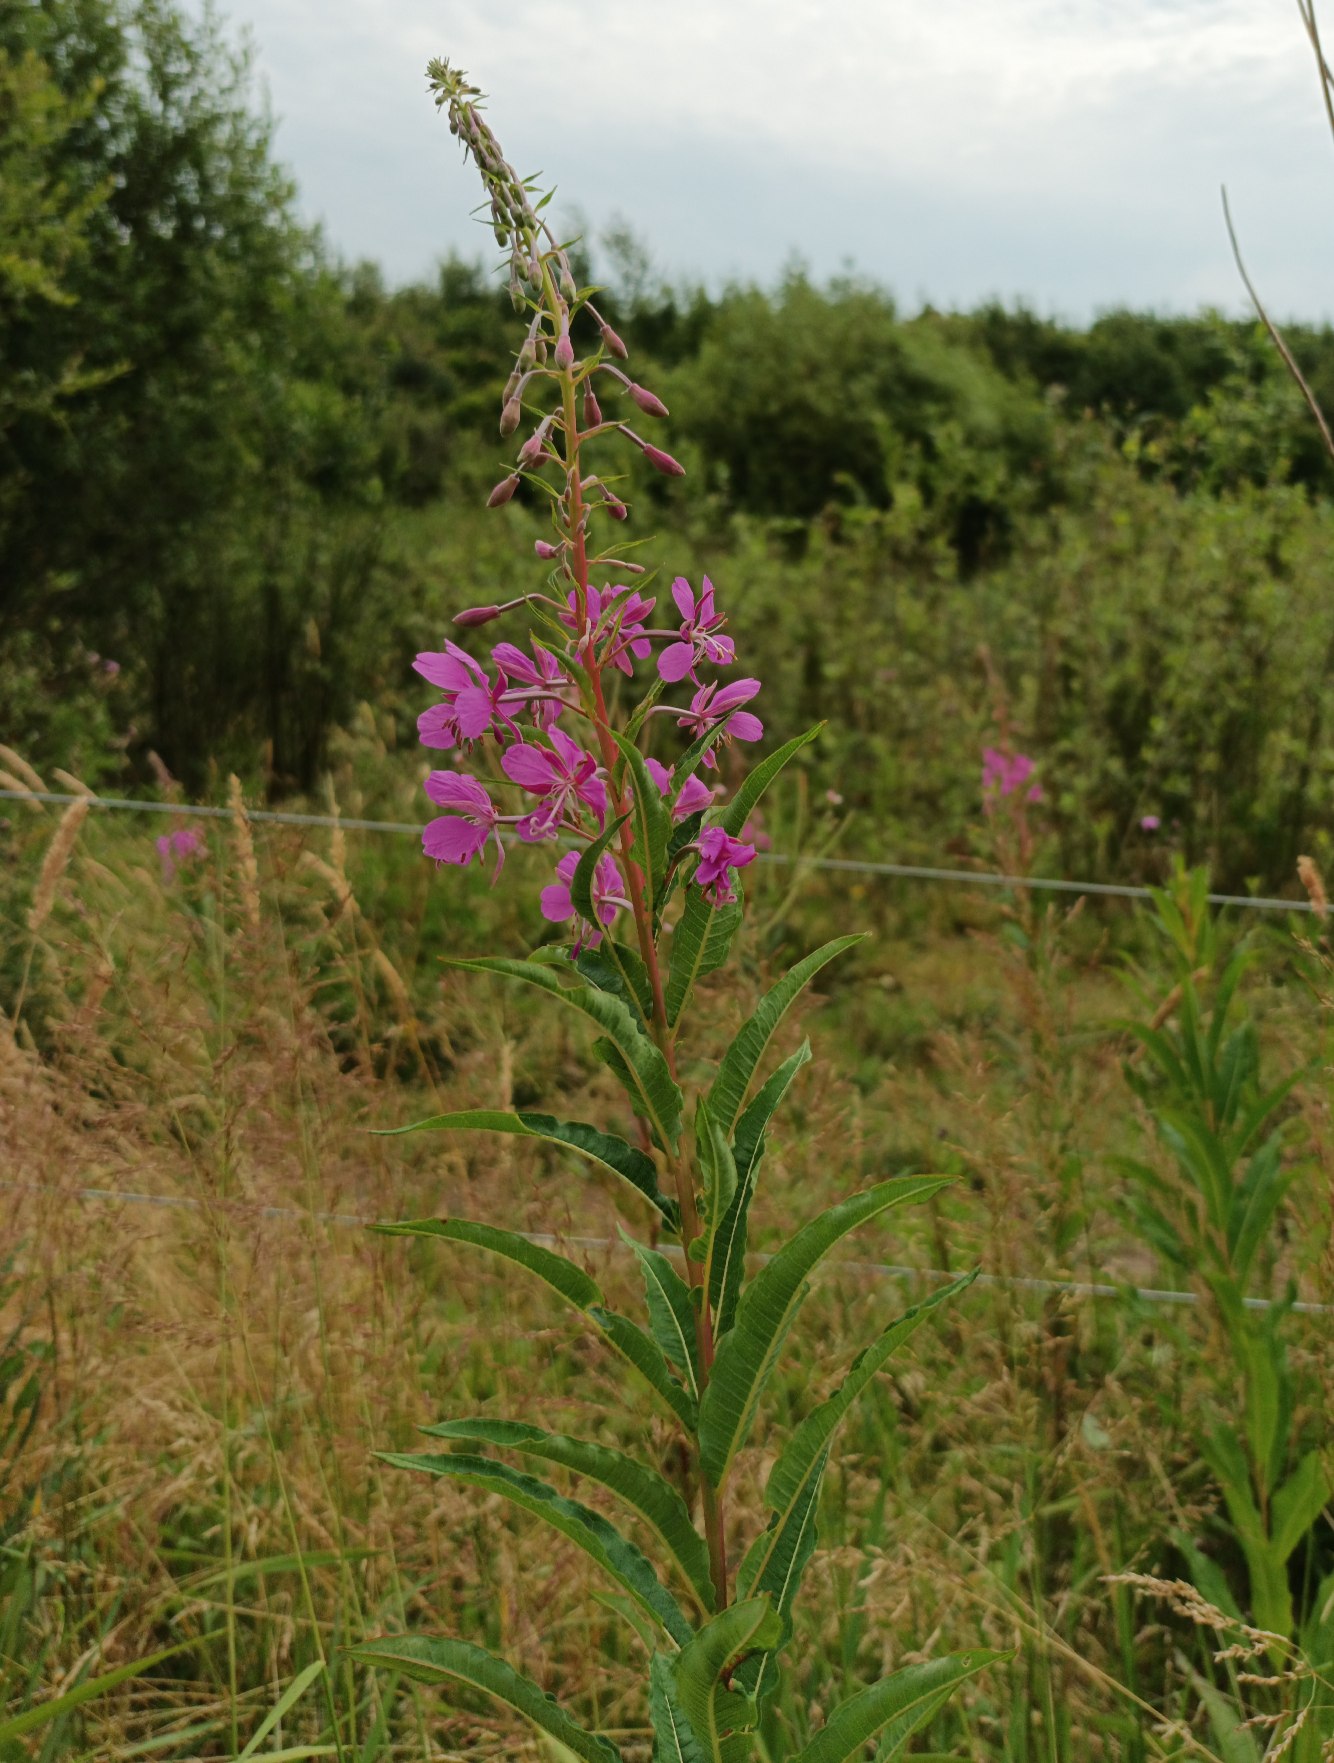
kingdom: Plantae
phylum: Tracheophyta
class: Magnoliopsida
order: Myrtales
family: Onagraceae
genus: Chamaenerion
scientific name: Chamaenerion angustifolium
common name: Gederams
